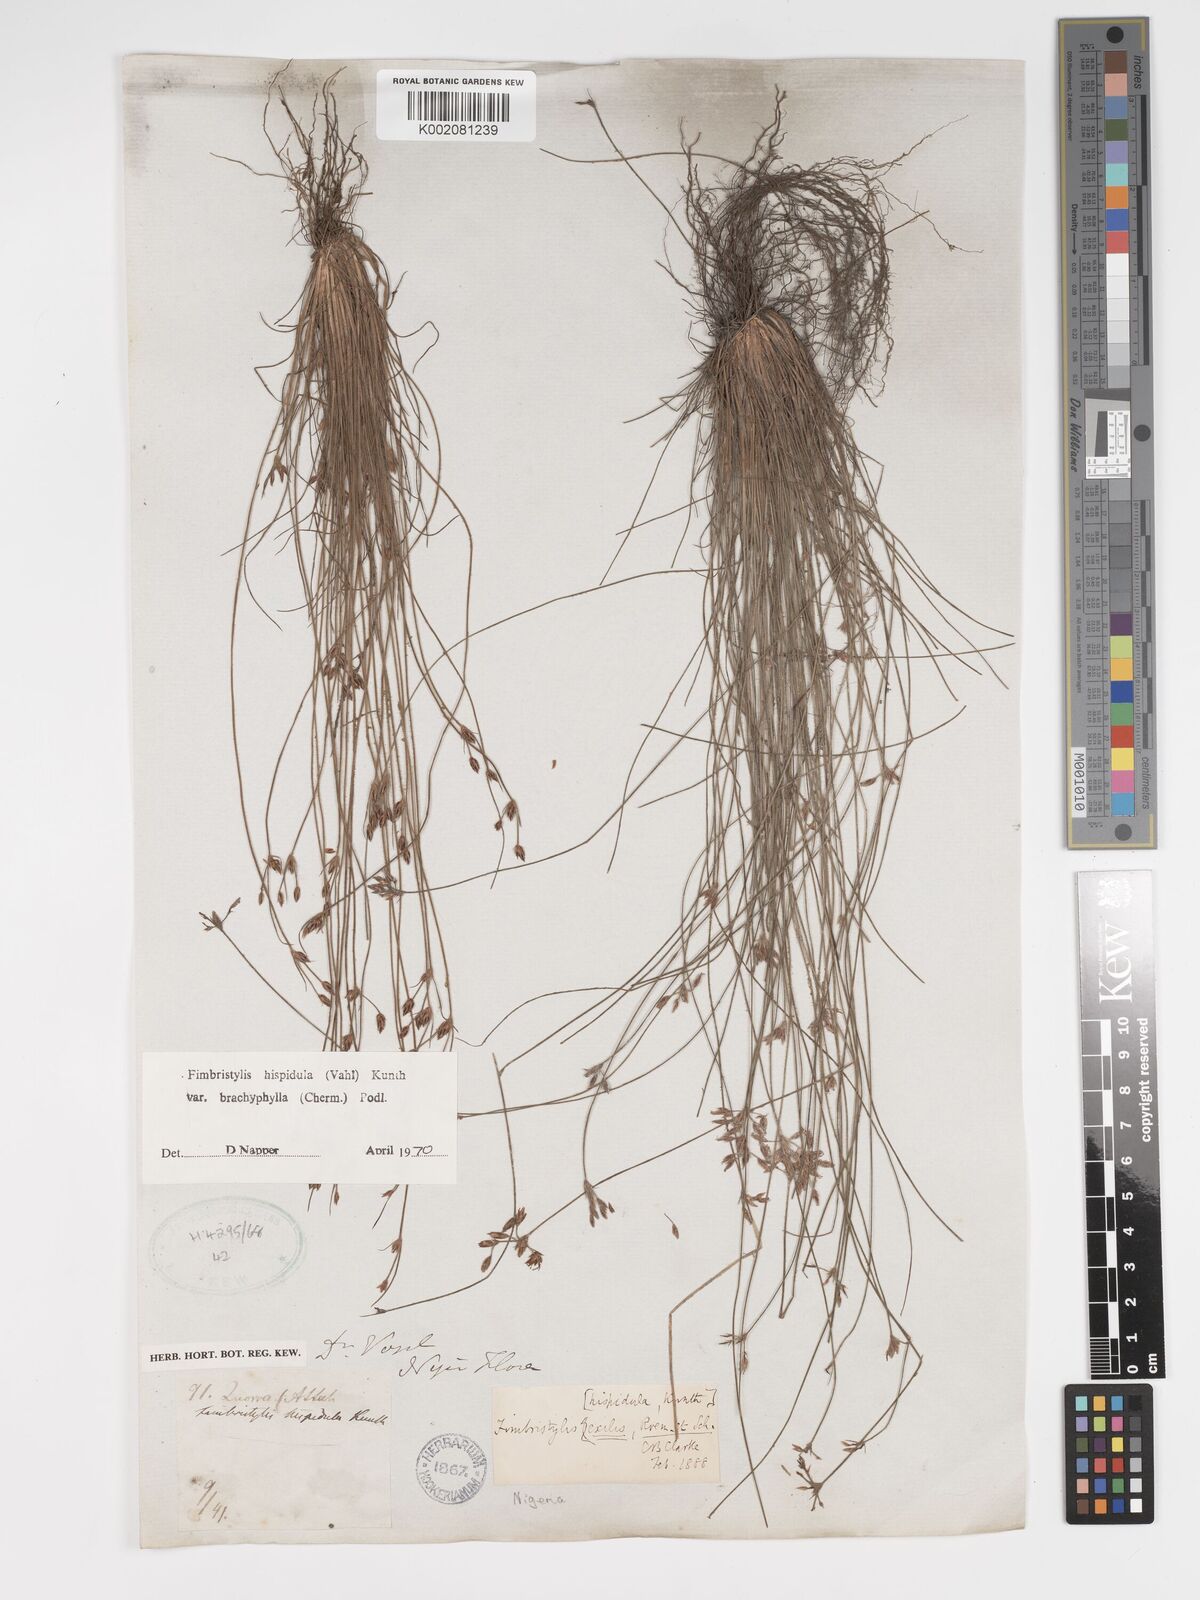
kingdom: Plantae
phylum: Tracheophyta
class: Liliopsida
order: Poales
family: Cyperaceae
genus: Bulbostylis
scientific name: Bulbostylis hispidula
